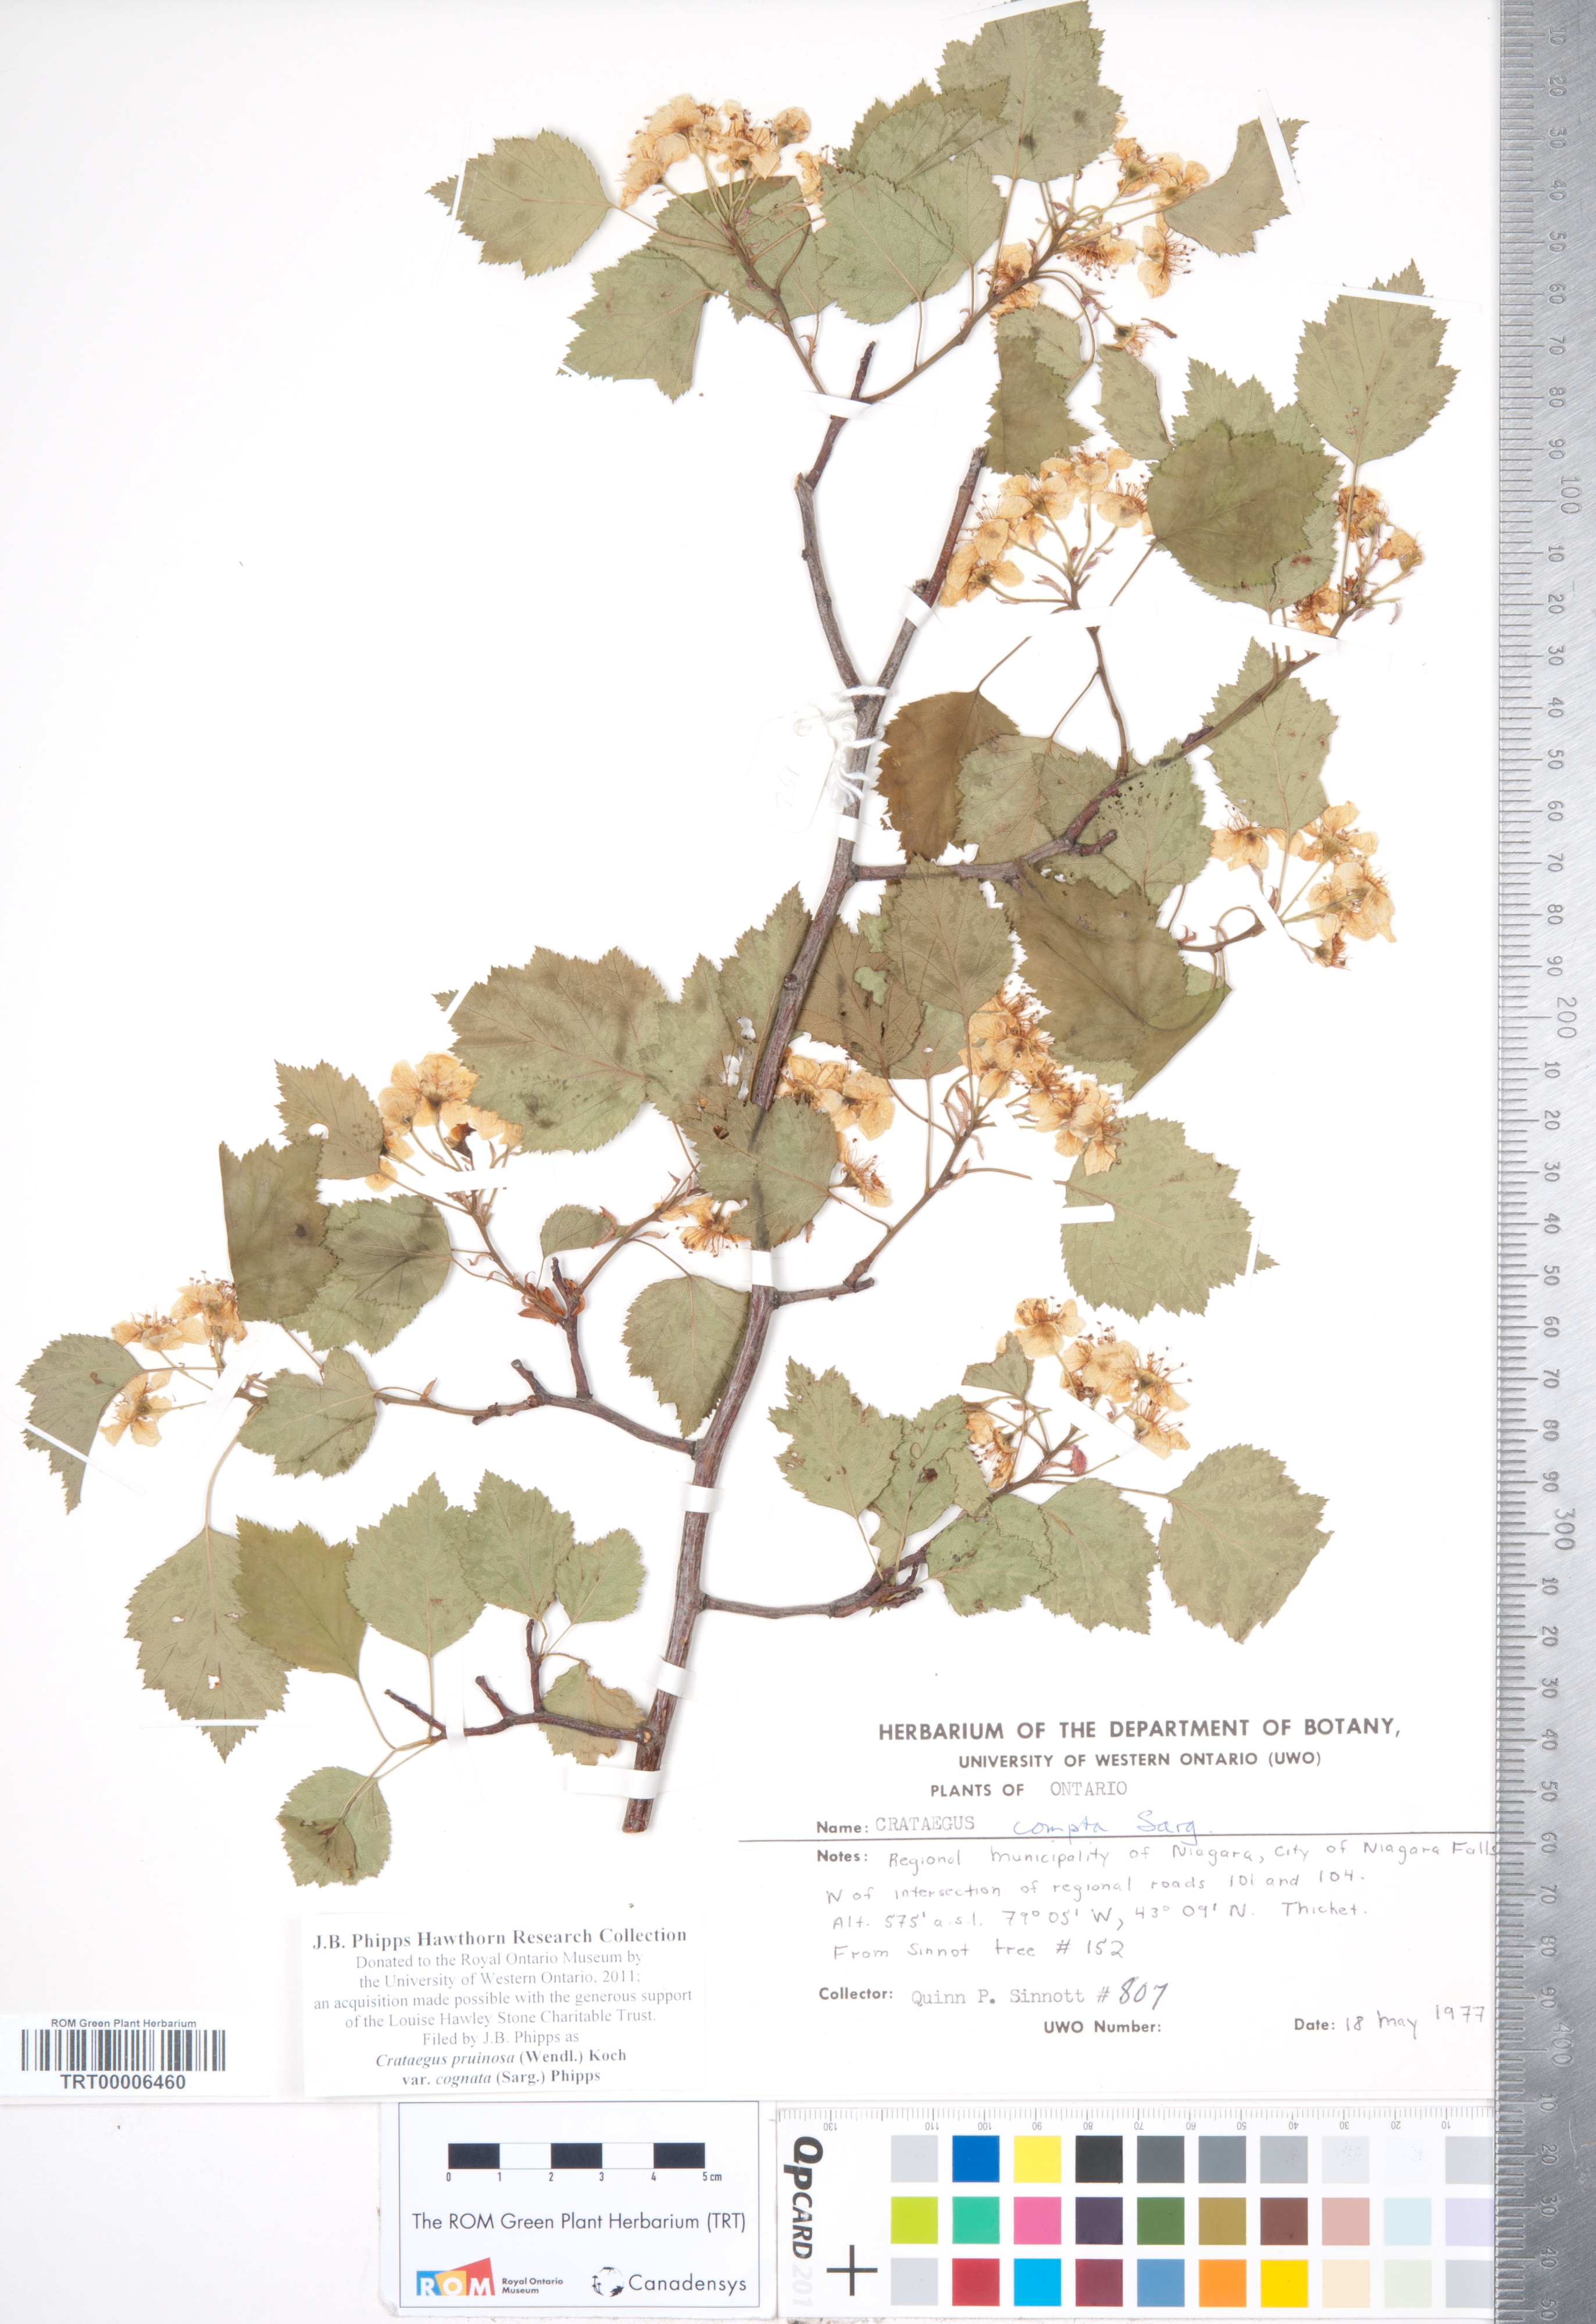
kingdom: Plantae
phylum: Tracheophyta
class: Magnoliopsida
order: Rosales
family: Rosaceae
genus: Crataegus
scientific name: Crataegus
